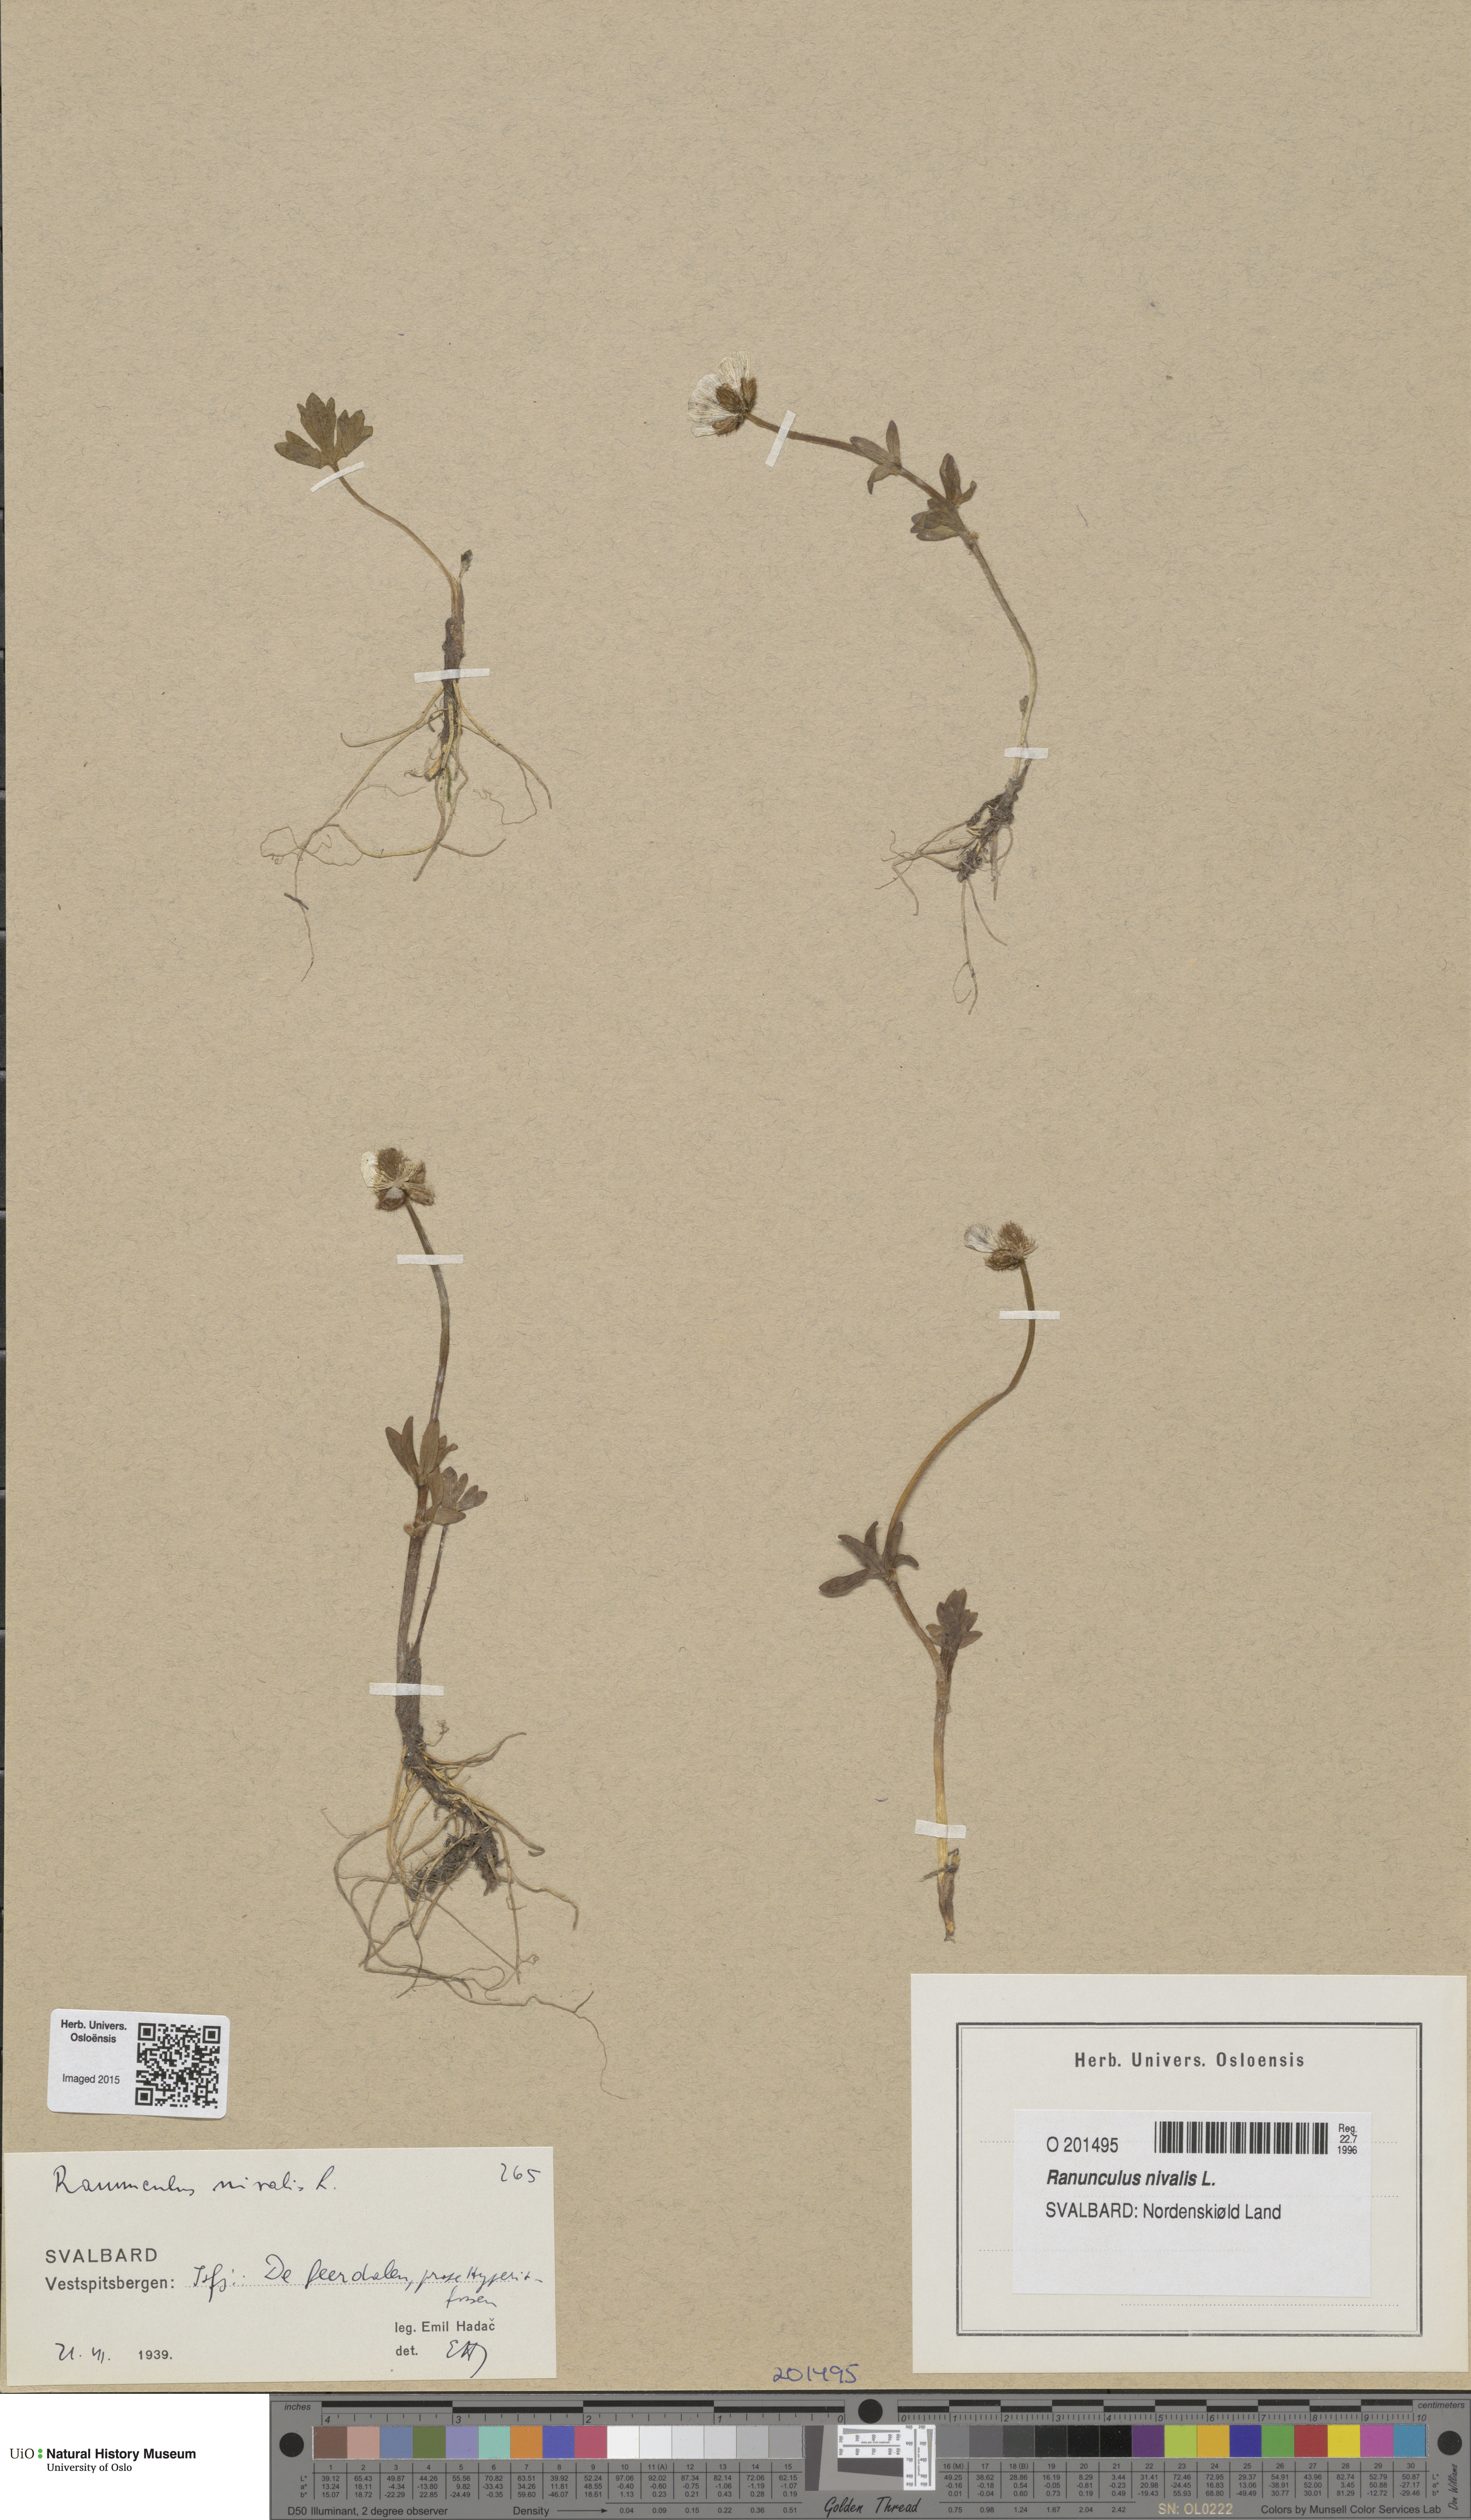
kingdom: Plantae
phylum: Tracheophyta
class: Magnoliopsida
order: Ranunculales
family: Ranunculaceae
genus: Ranunculus
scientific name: Ranunculus nivalis
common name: Snow buttercup
